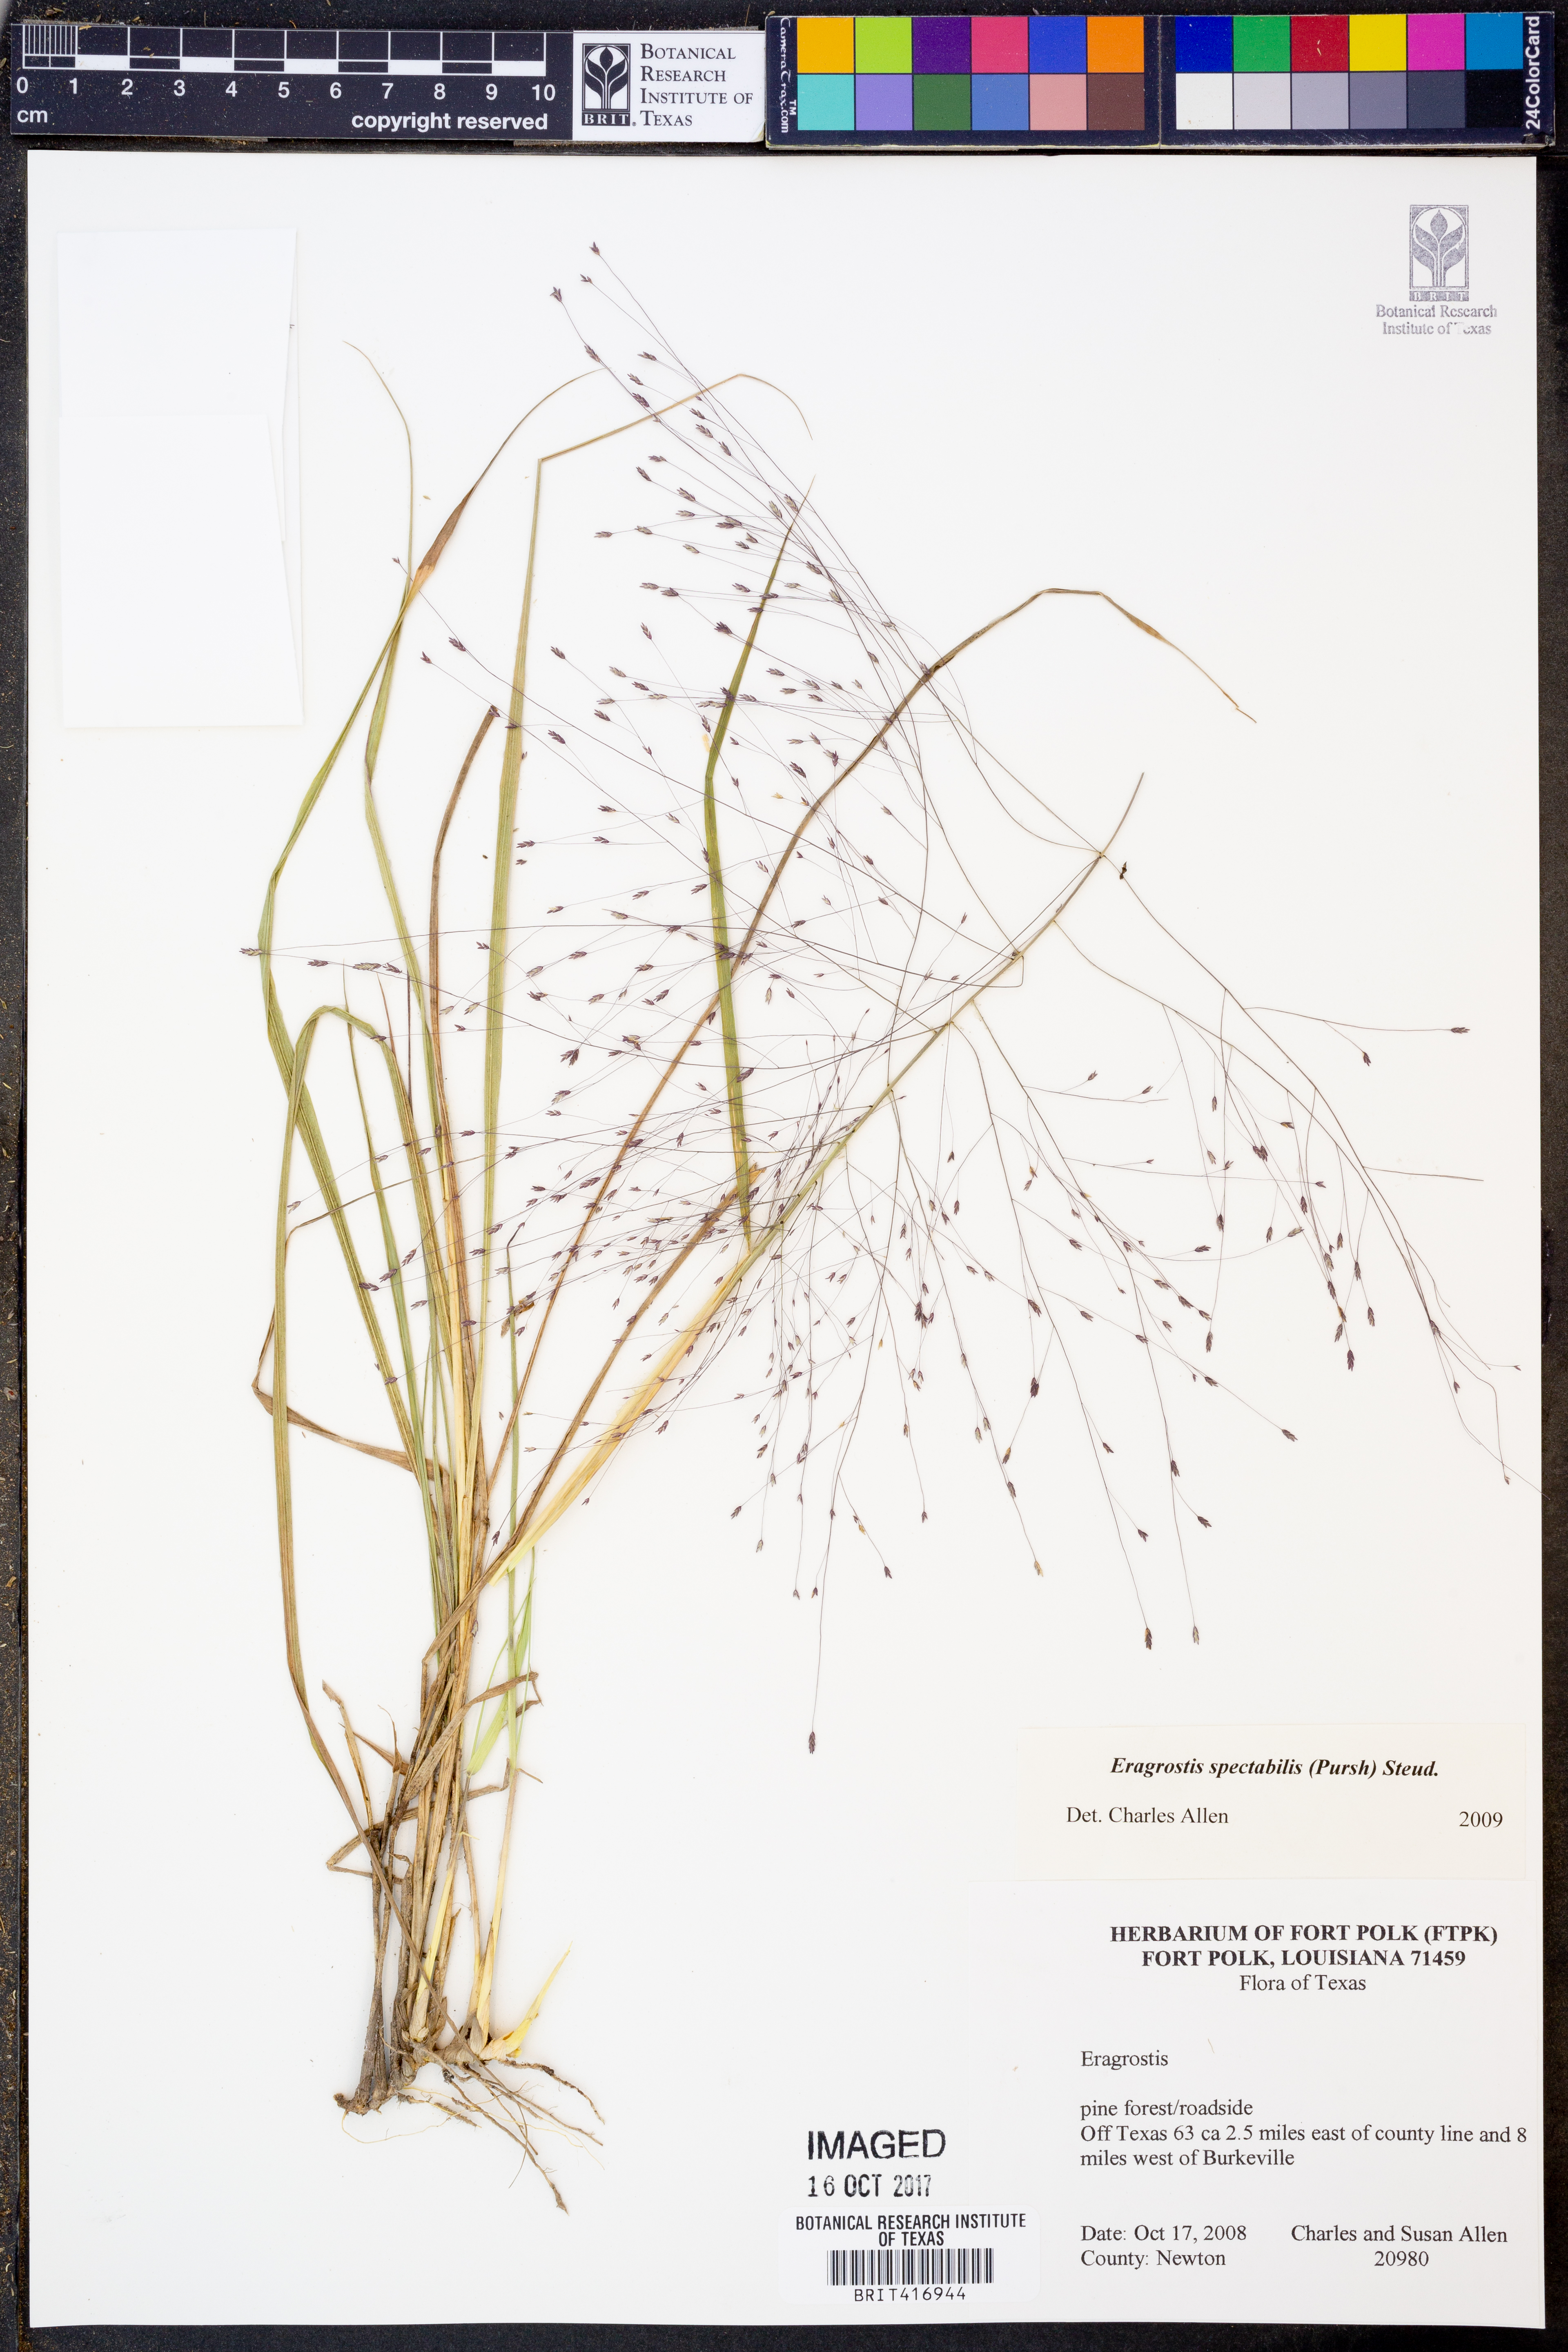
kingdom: Plantae
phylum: Tracheophyta
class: Liliopsida
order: Poales
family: Poaceae
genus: Eragrostis
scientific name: Eragrostis spectabilis
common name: Petticoat-climber
